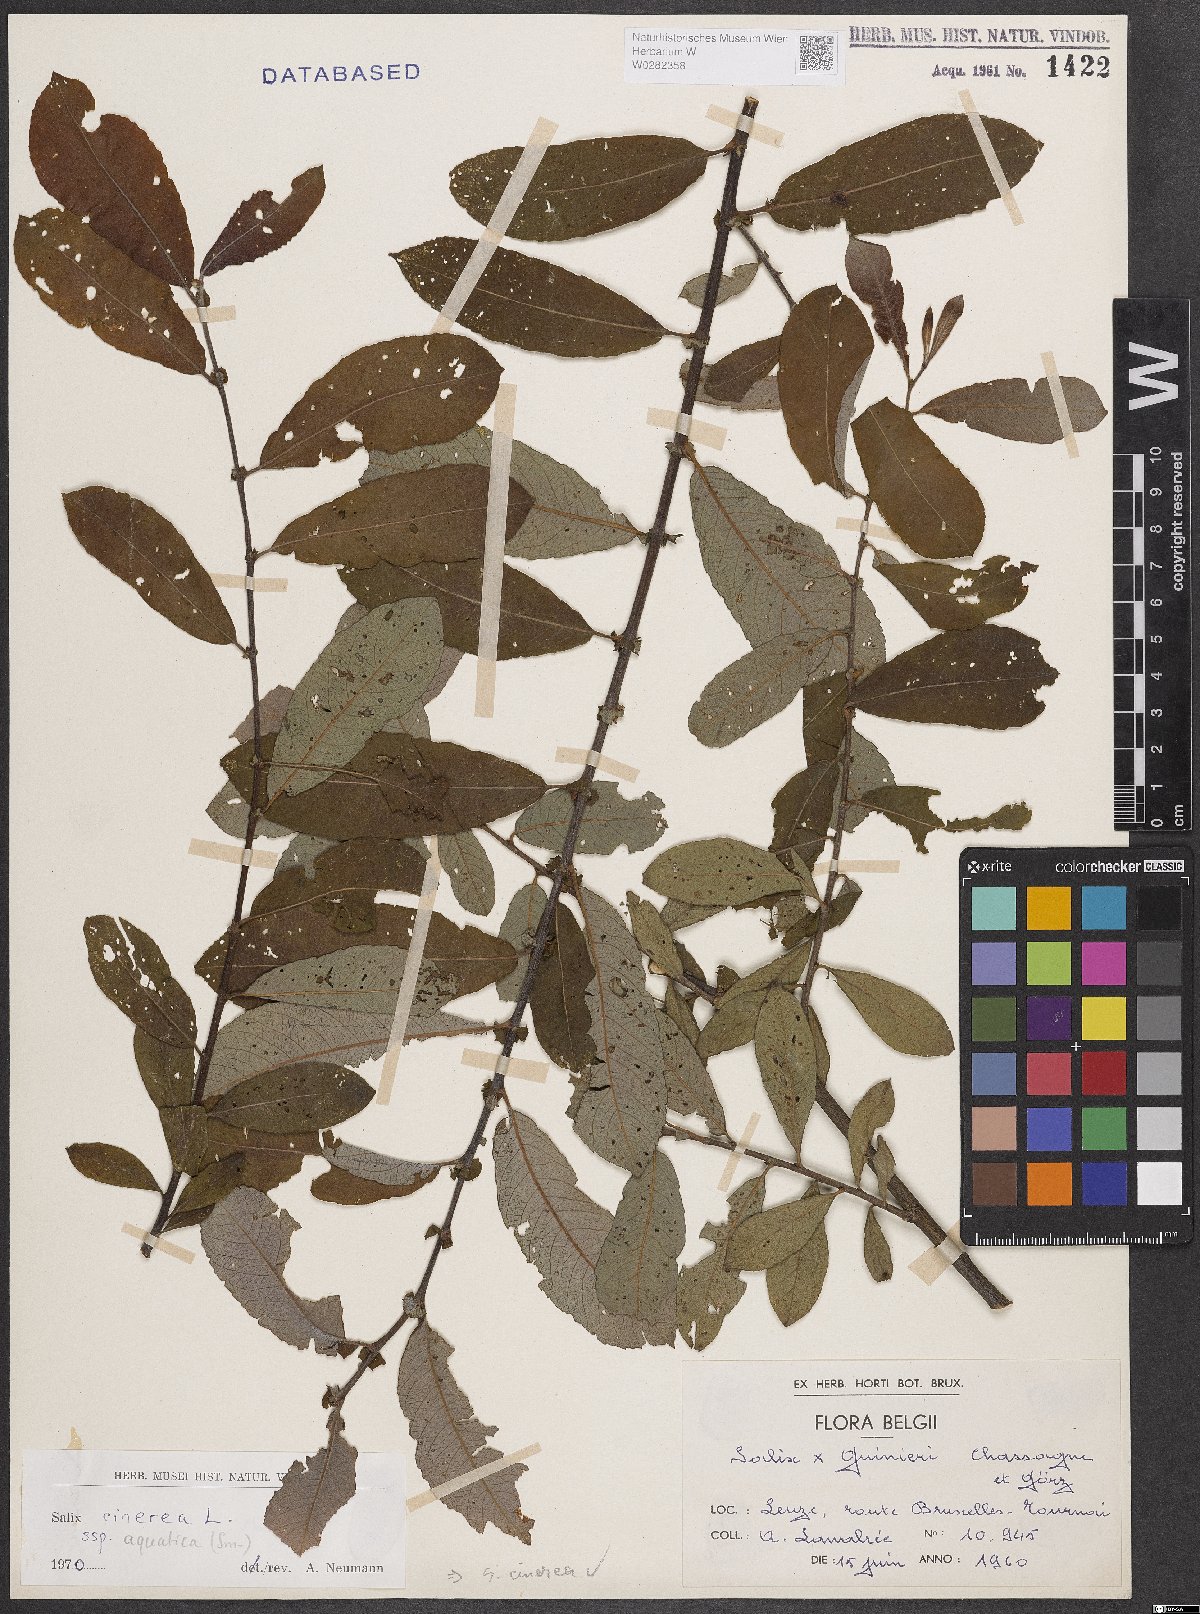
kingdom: Plantae
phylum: Tracheophyta
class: Magnoliopsida
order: Malpighiales
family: Salicaceae
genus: Salix
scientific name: Salix cinerea
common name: Common sallow
